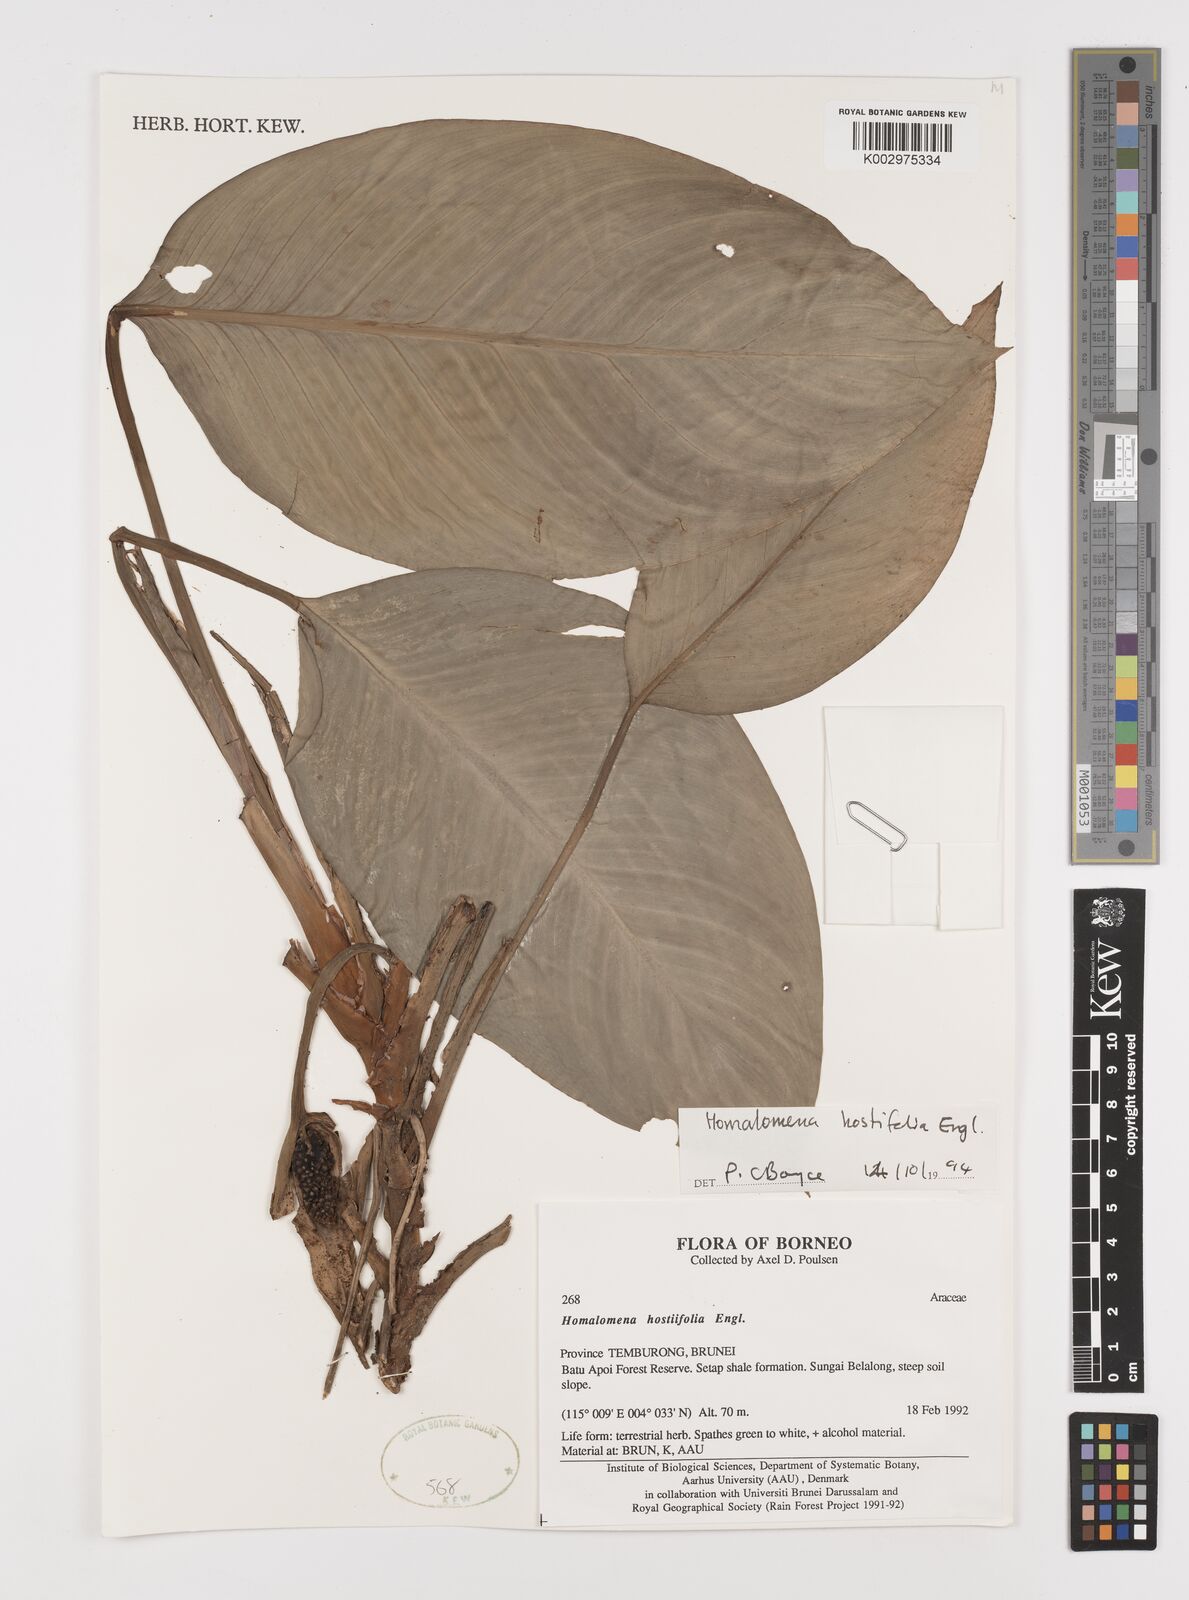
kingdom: Plantae
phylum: Tracheophyta
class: Liliopsida
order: Alismatales
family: Araceae
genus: Homalomena
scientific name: Homalomena ovata
